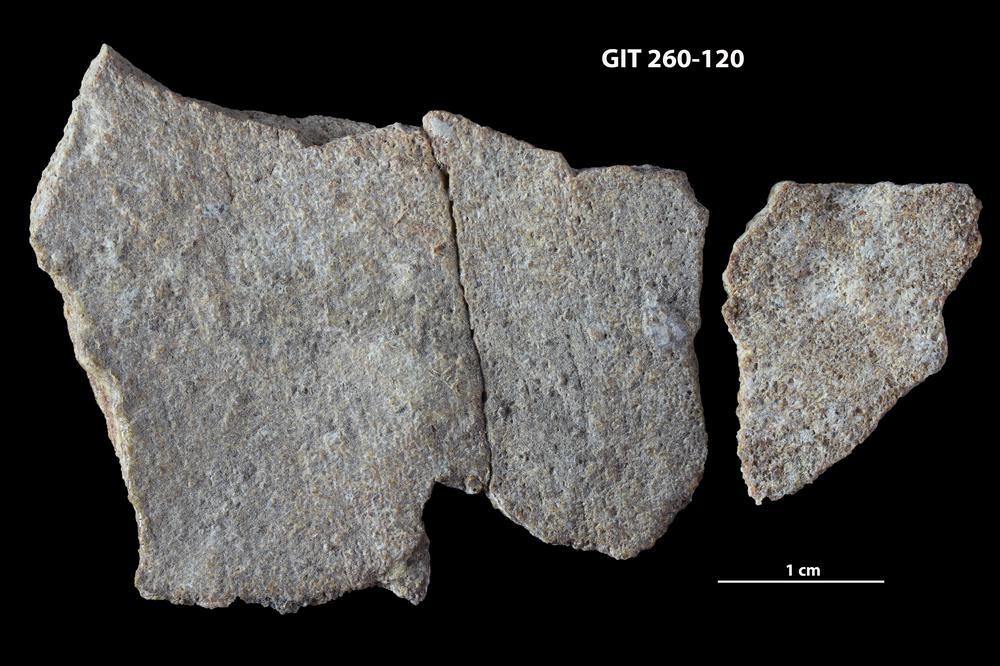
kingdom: Animalia
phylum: Chordata
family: Homostiidae
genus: Homostius
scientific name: Homostius
